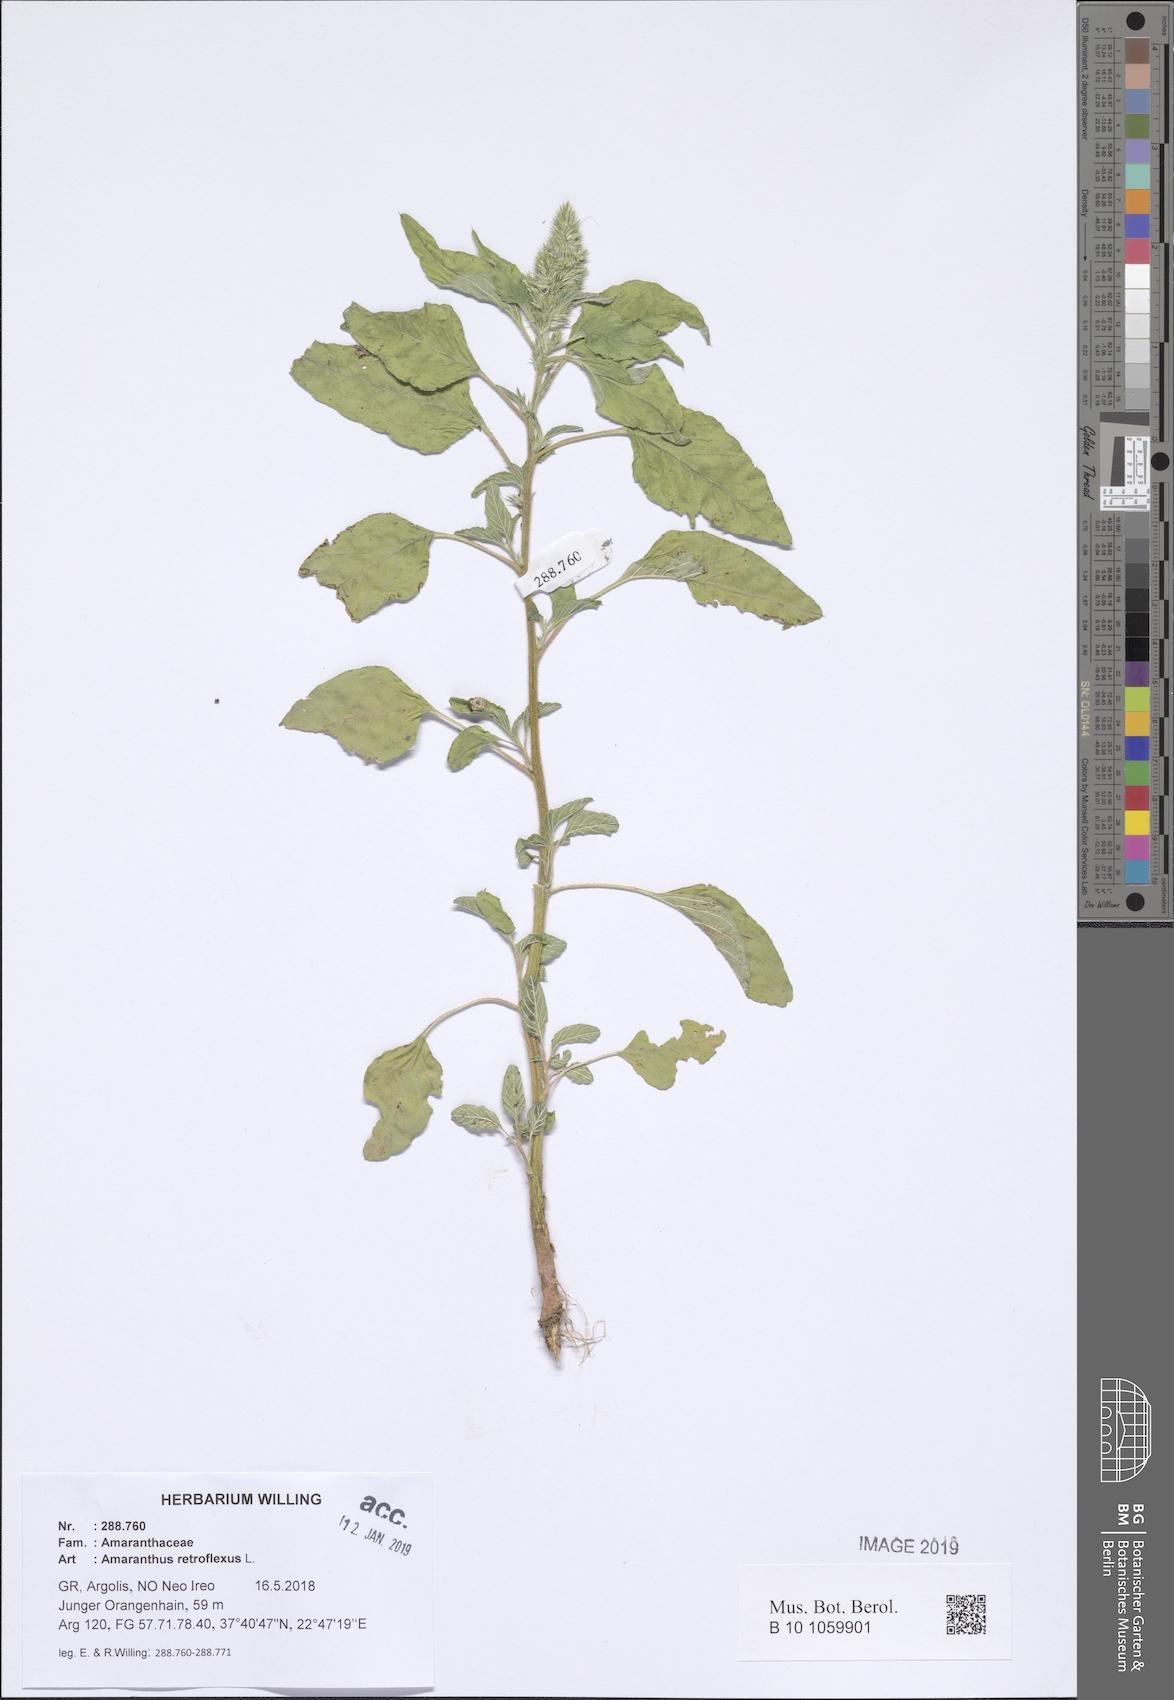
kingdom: Plantae
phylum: Tracheophyta
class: Magnoliopsida
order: Caryophyllales
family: Amaranthaceae
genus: Amaranthus
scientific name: Amaranthus retroflexus
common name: Redroot amaranth
